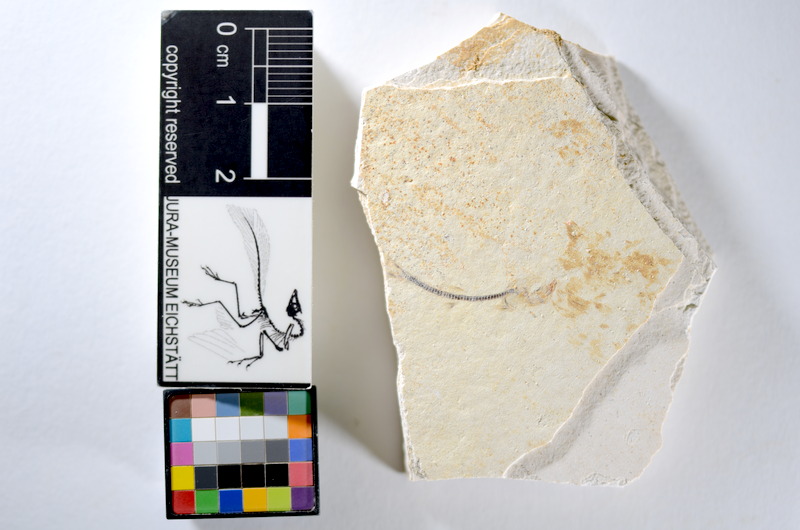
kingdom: Animalia
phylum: Chordata
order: Salmoniformes
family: Orthogonikleithridae
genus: Orthogonikleithrus
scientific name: Orthogonikleithrus hoelli
